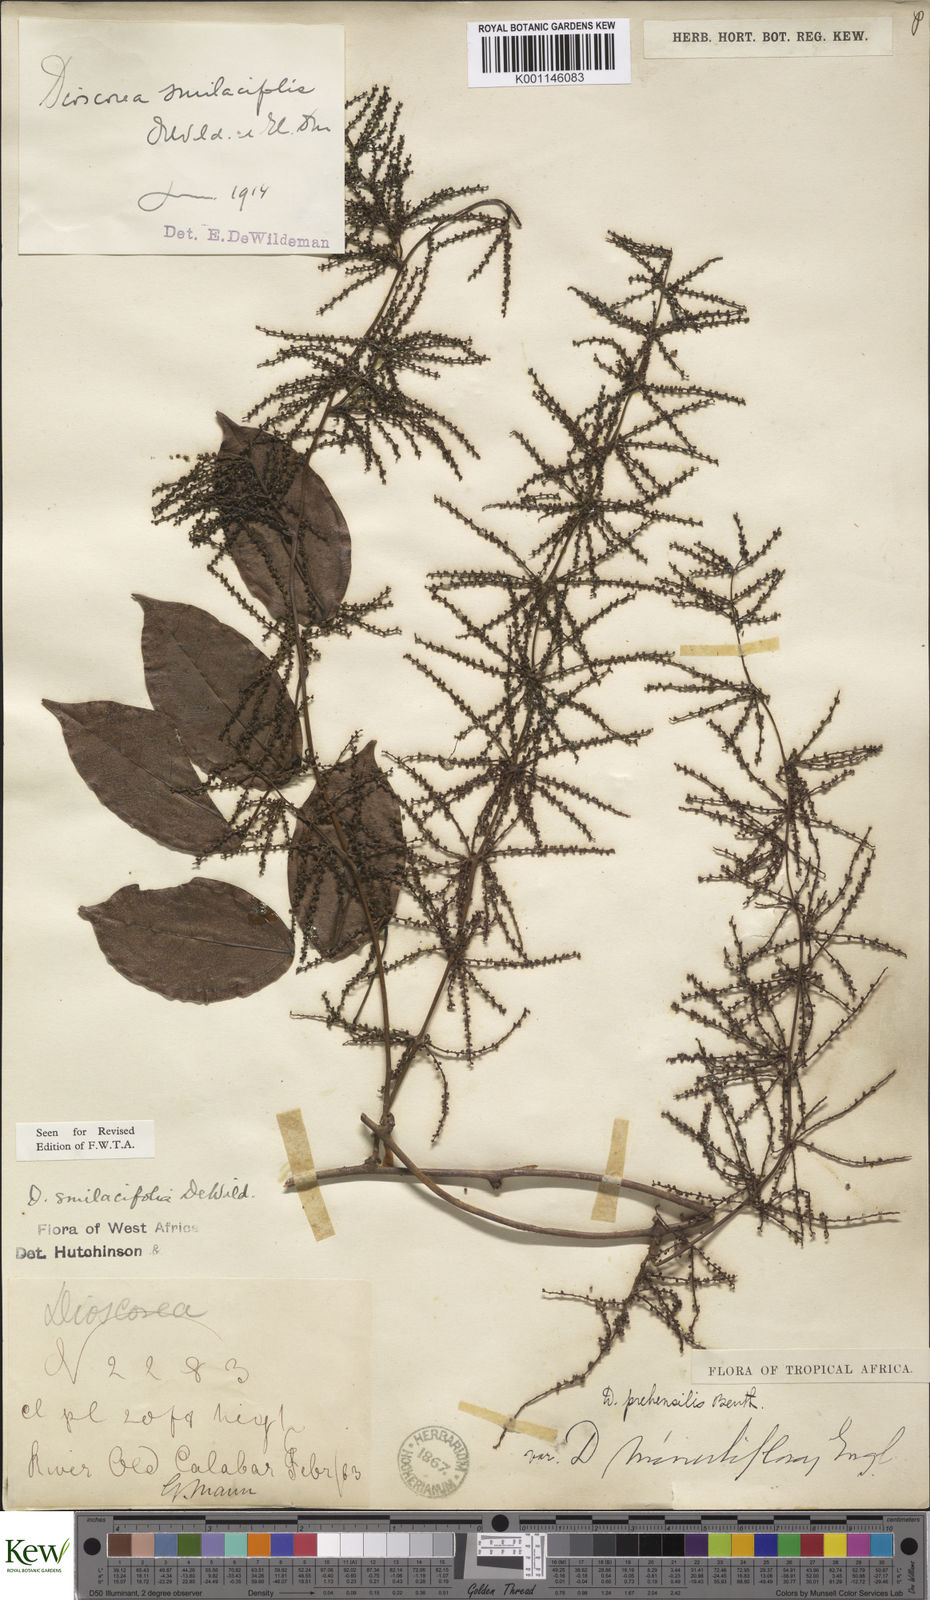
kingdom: Plantae
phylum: Tracheophyta
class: Liliopsida
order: Dioscoreales
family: Dioscoreaceae
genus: Dioscorea
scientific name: Dioscorea smilacifolia
